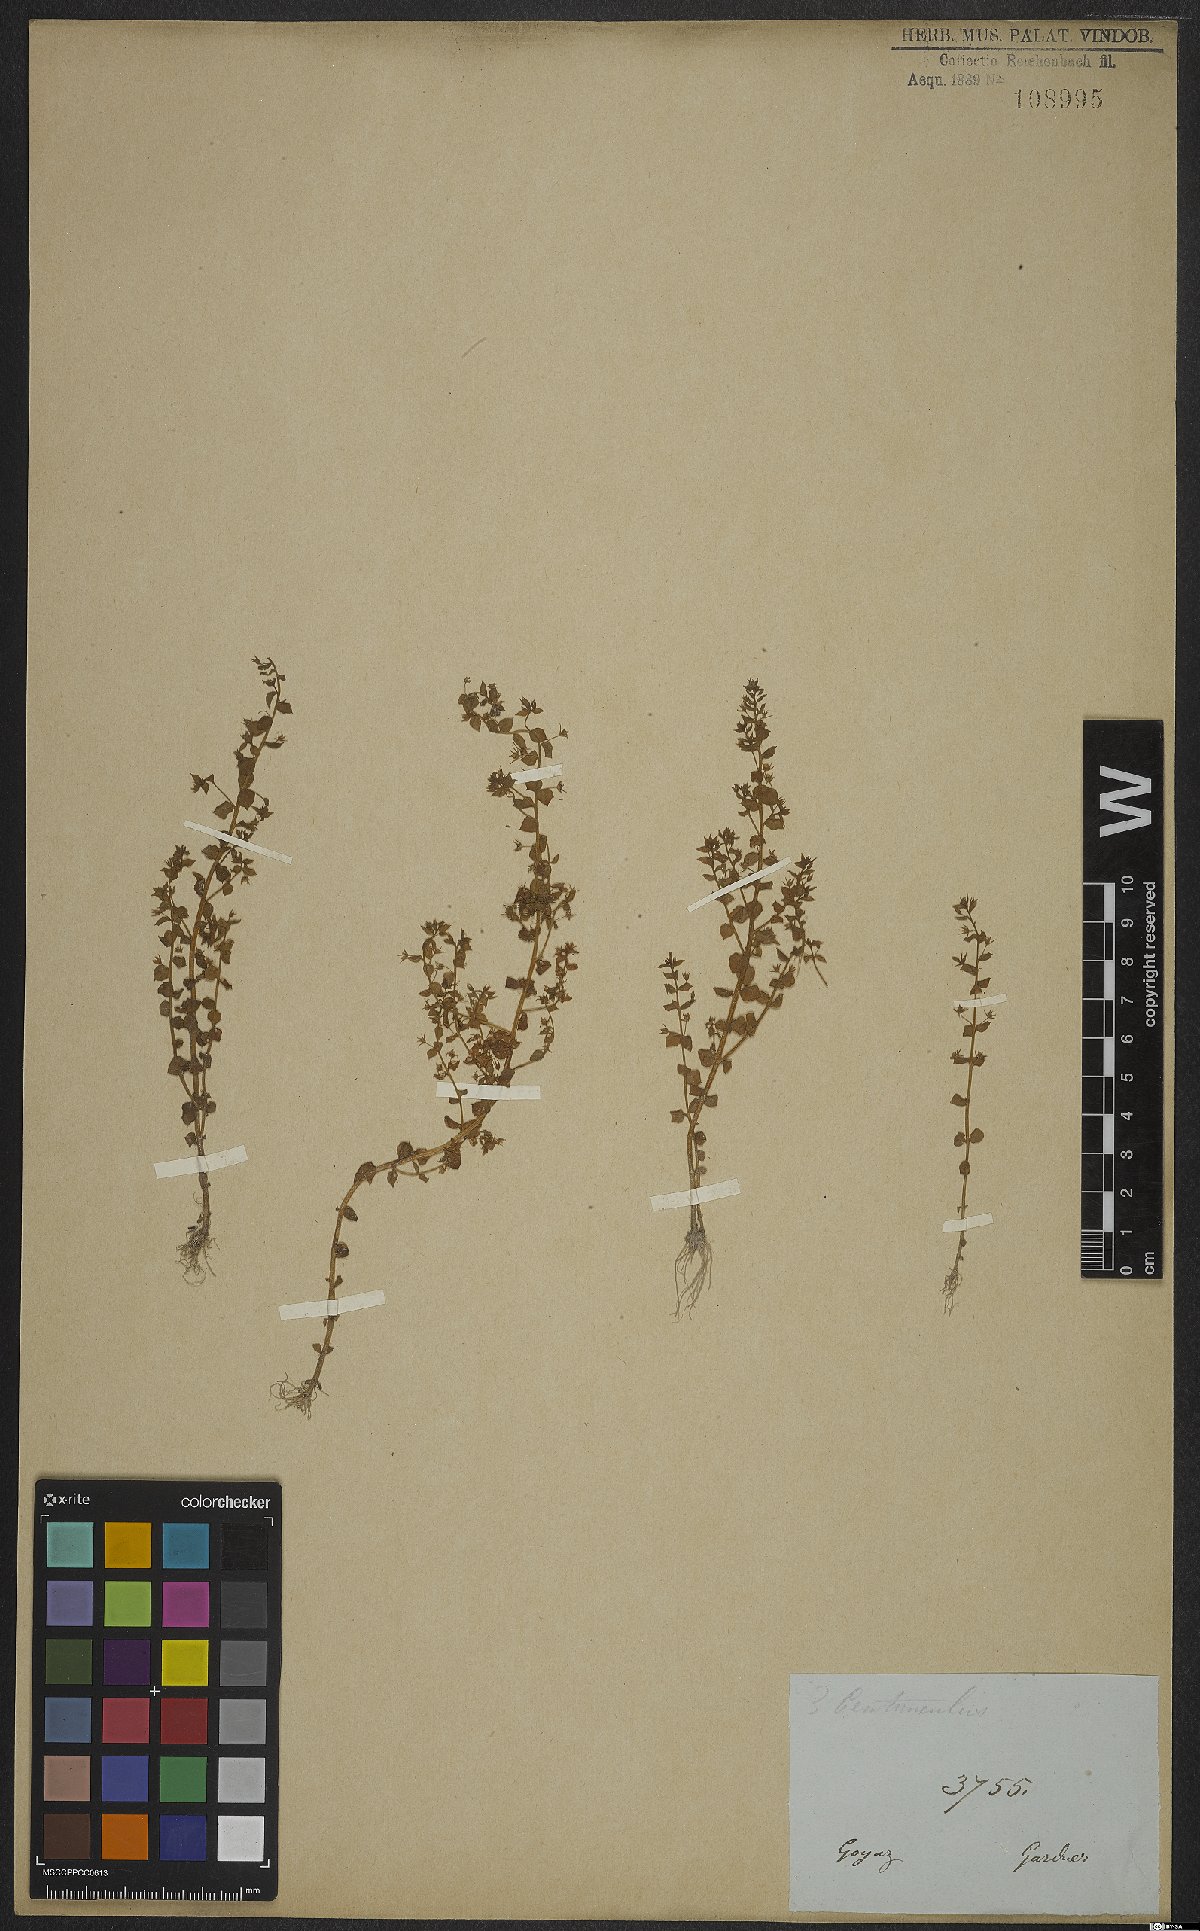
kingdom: Plantae
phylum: Tracheophyta
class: Magnoliopsida
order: Ericales
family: Primulaceae
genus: Lysimachia
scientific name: Lysimachia ovalis
